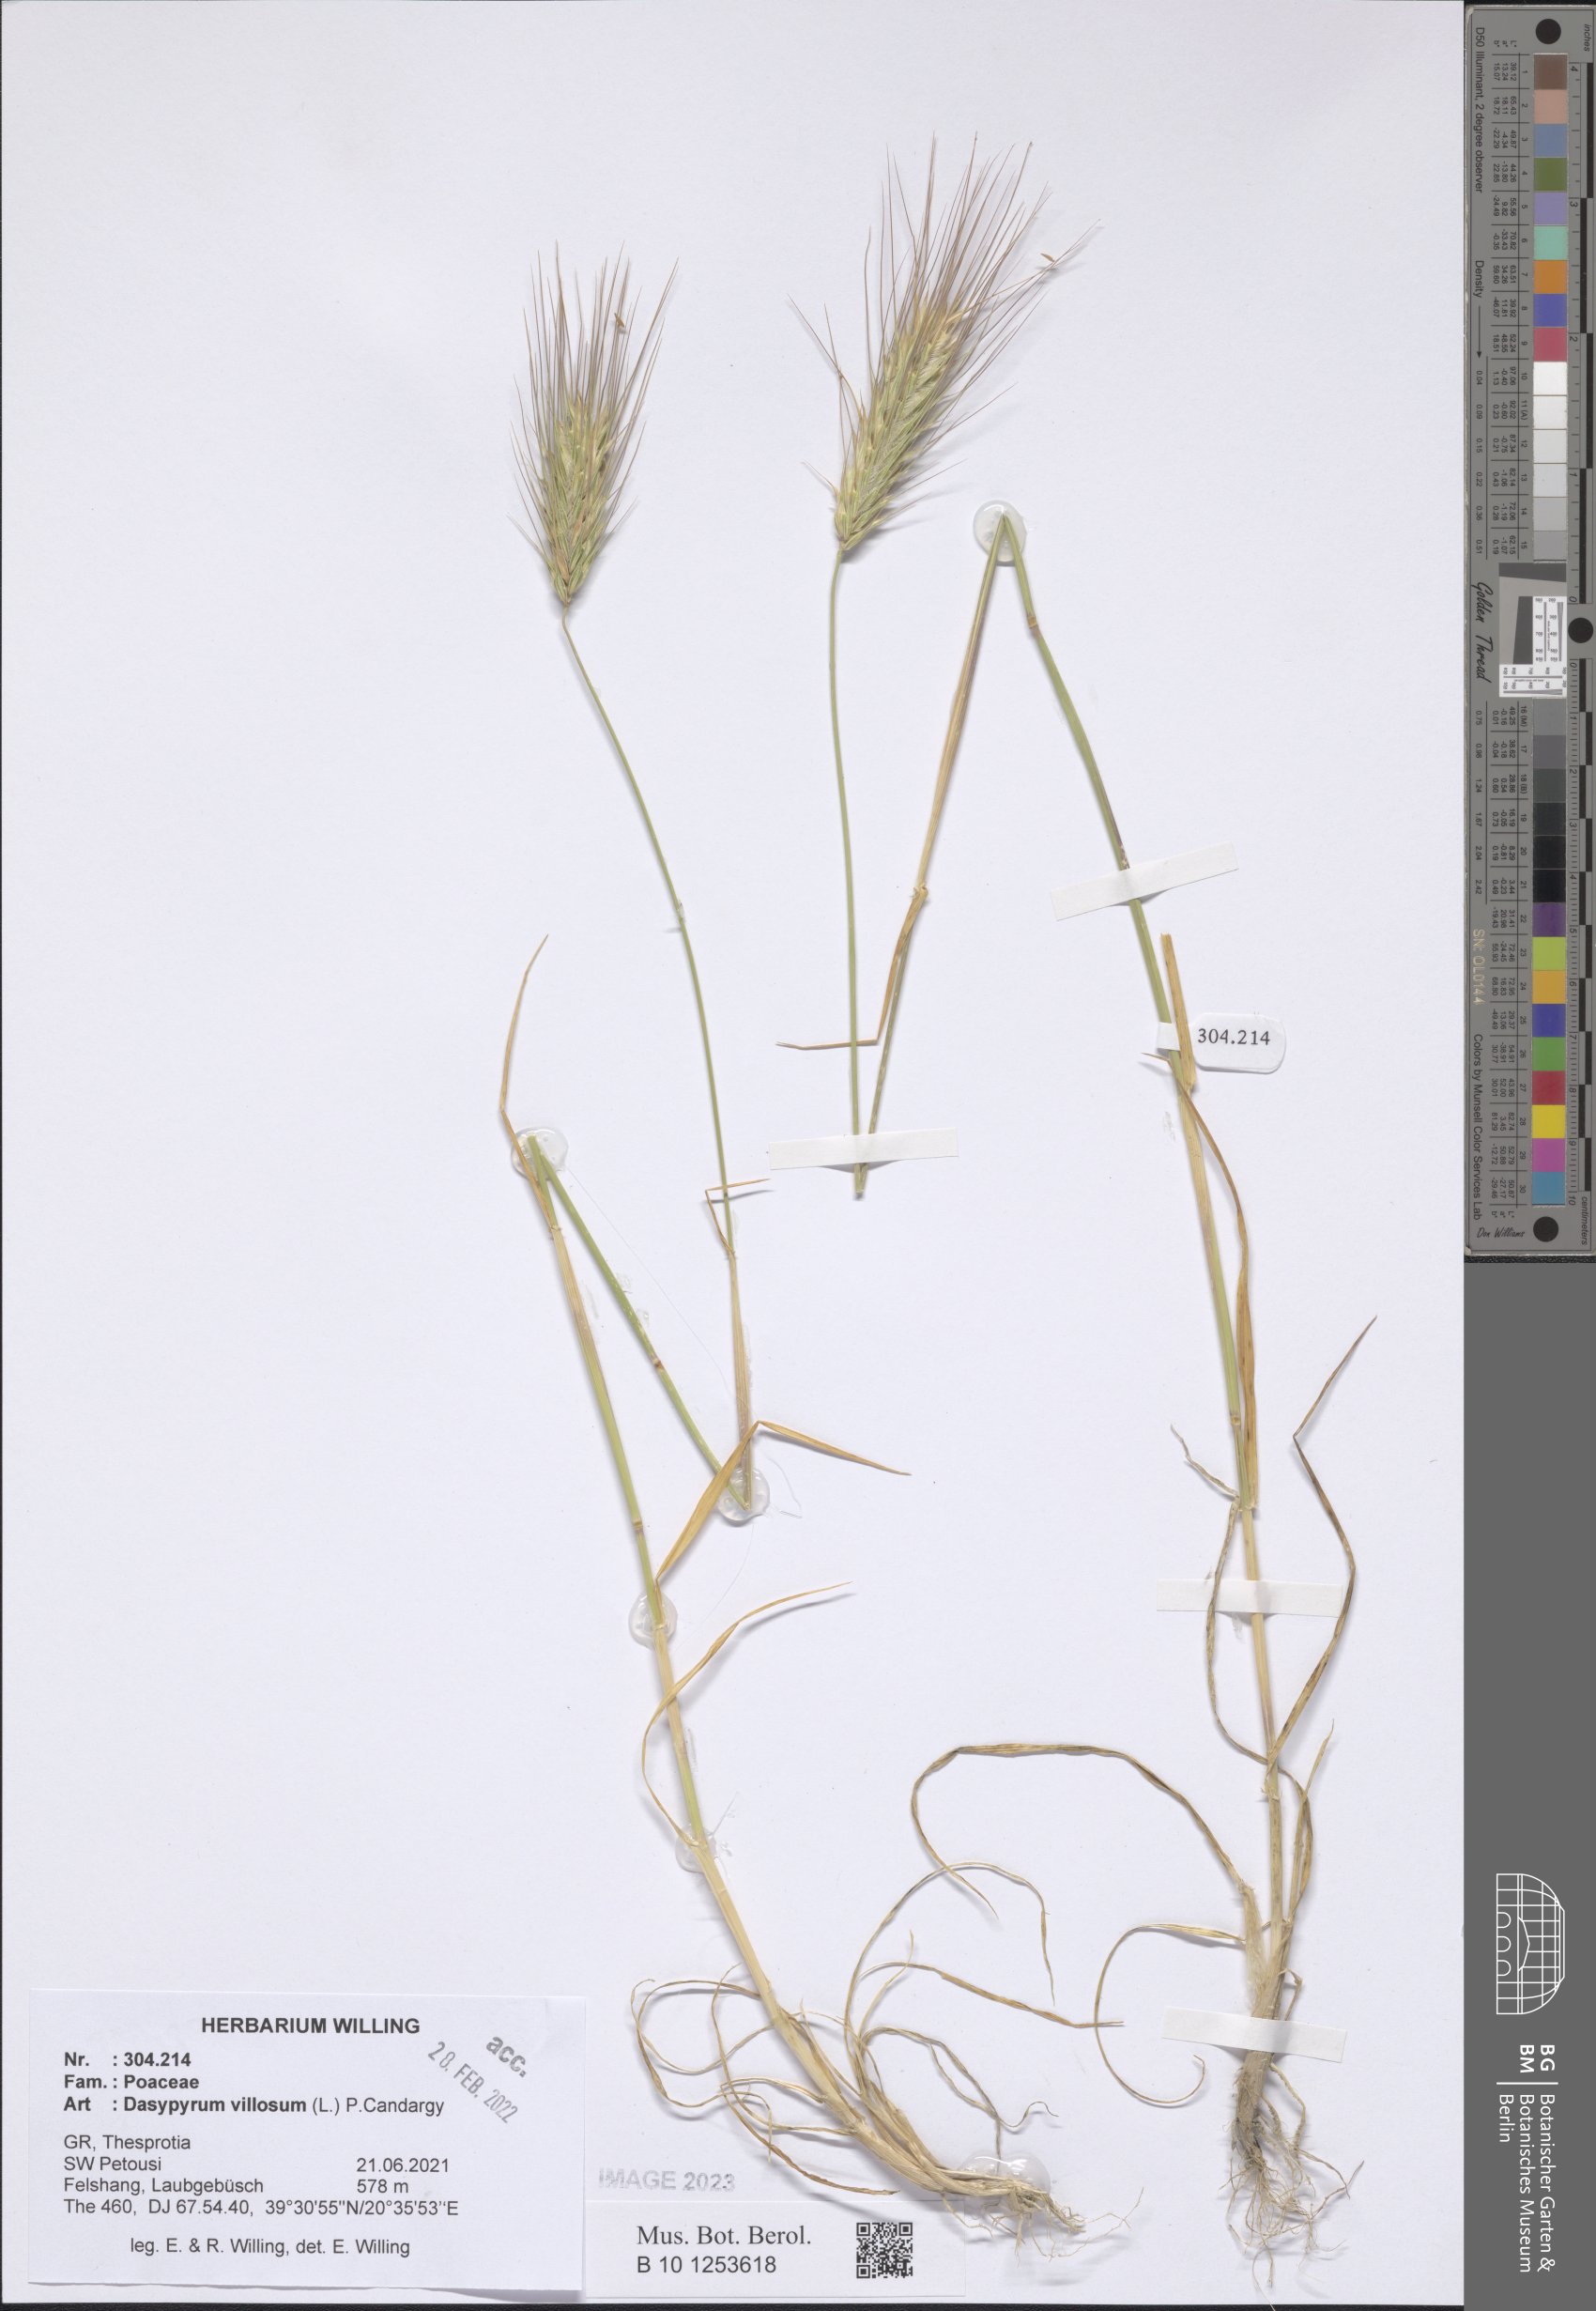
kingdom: Plantae
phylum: Tracheophyta
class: Liliopsida
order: Poales
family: Poaceae
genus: Dasypyrum
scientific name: Dasypyrum villosum
